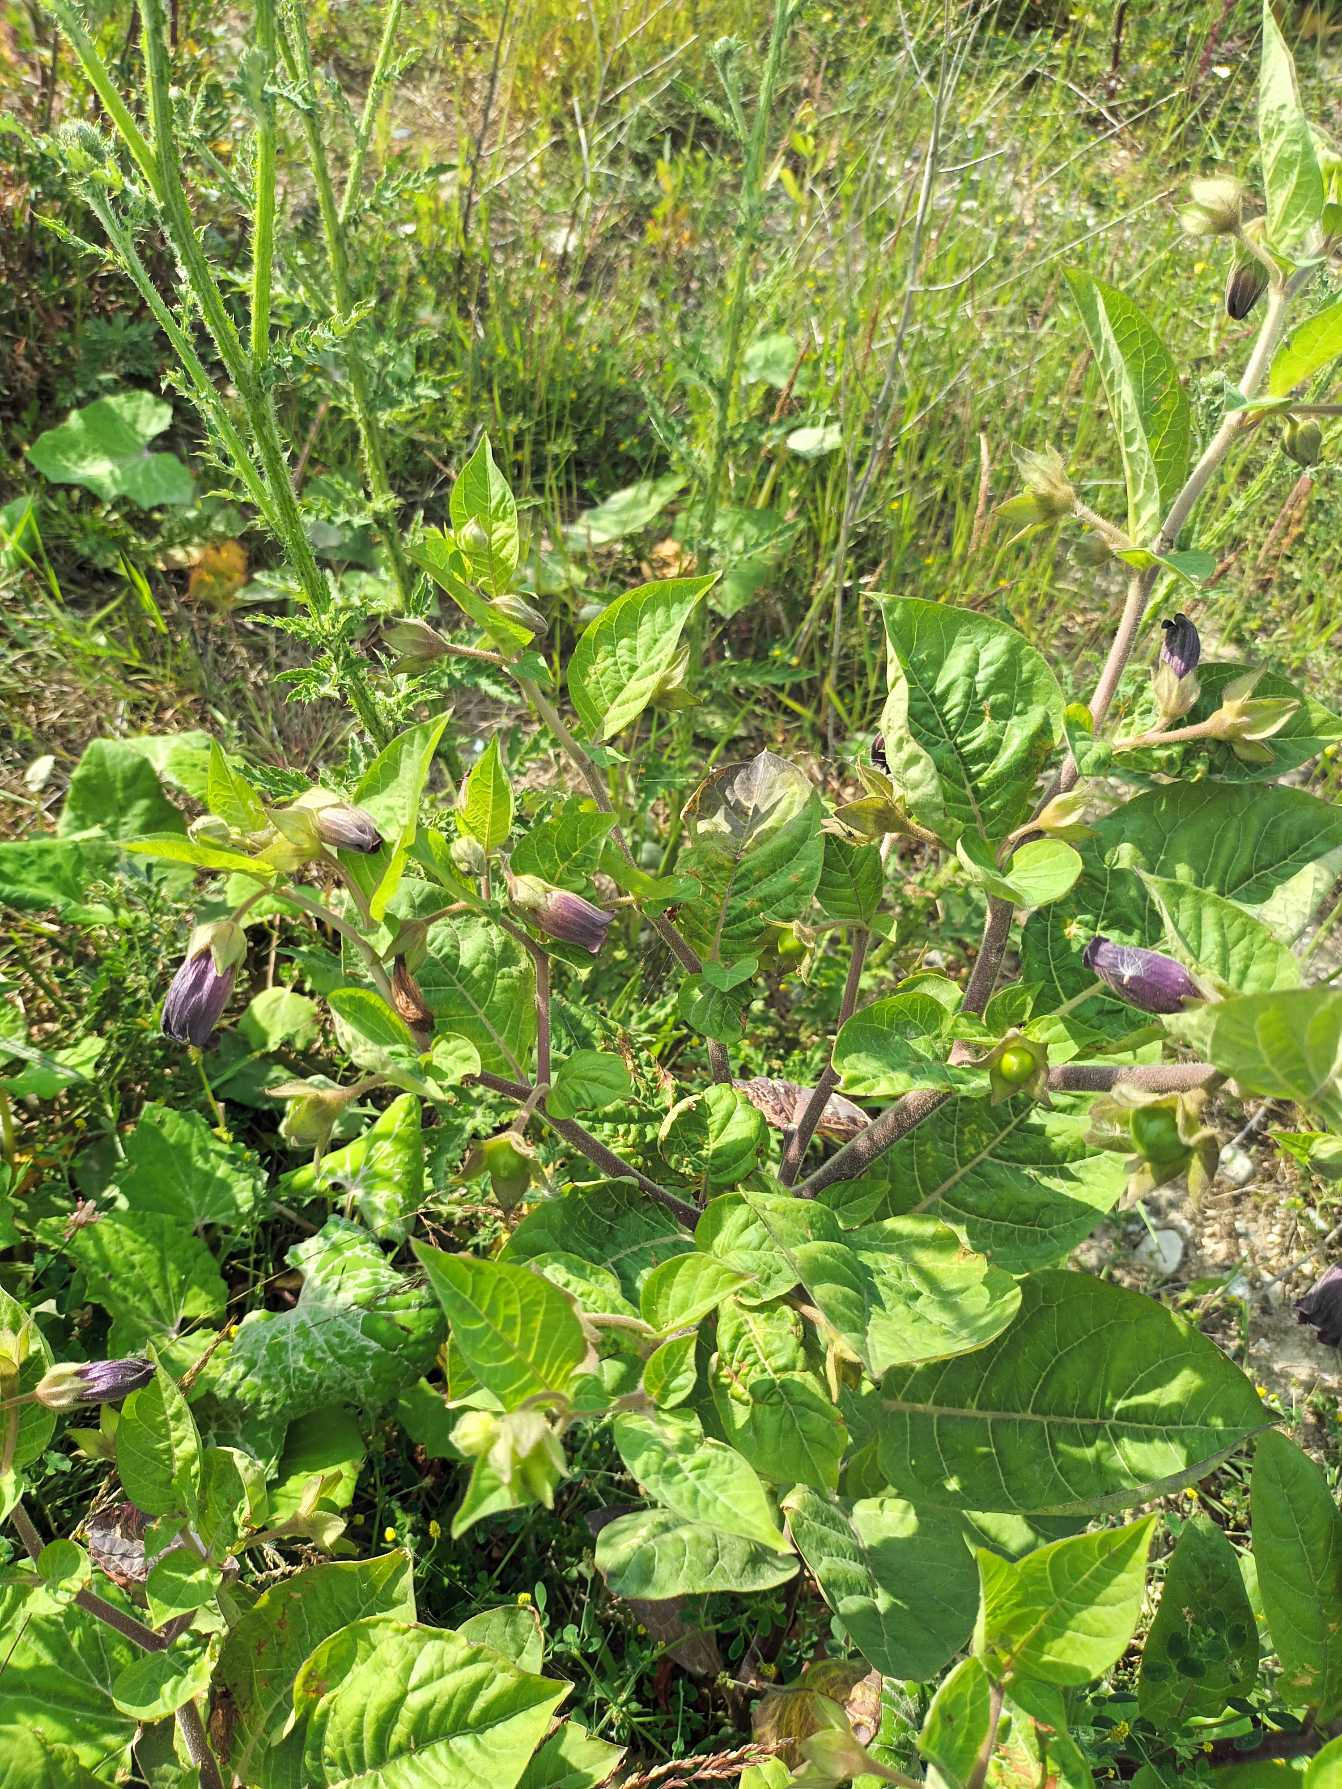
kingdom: Plantae
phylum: Tracheophyta
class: Magnoliopsida
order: Solanales
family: Solanaceae
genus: Atropa
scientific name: Atropa belladonna
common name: Galnebær
